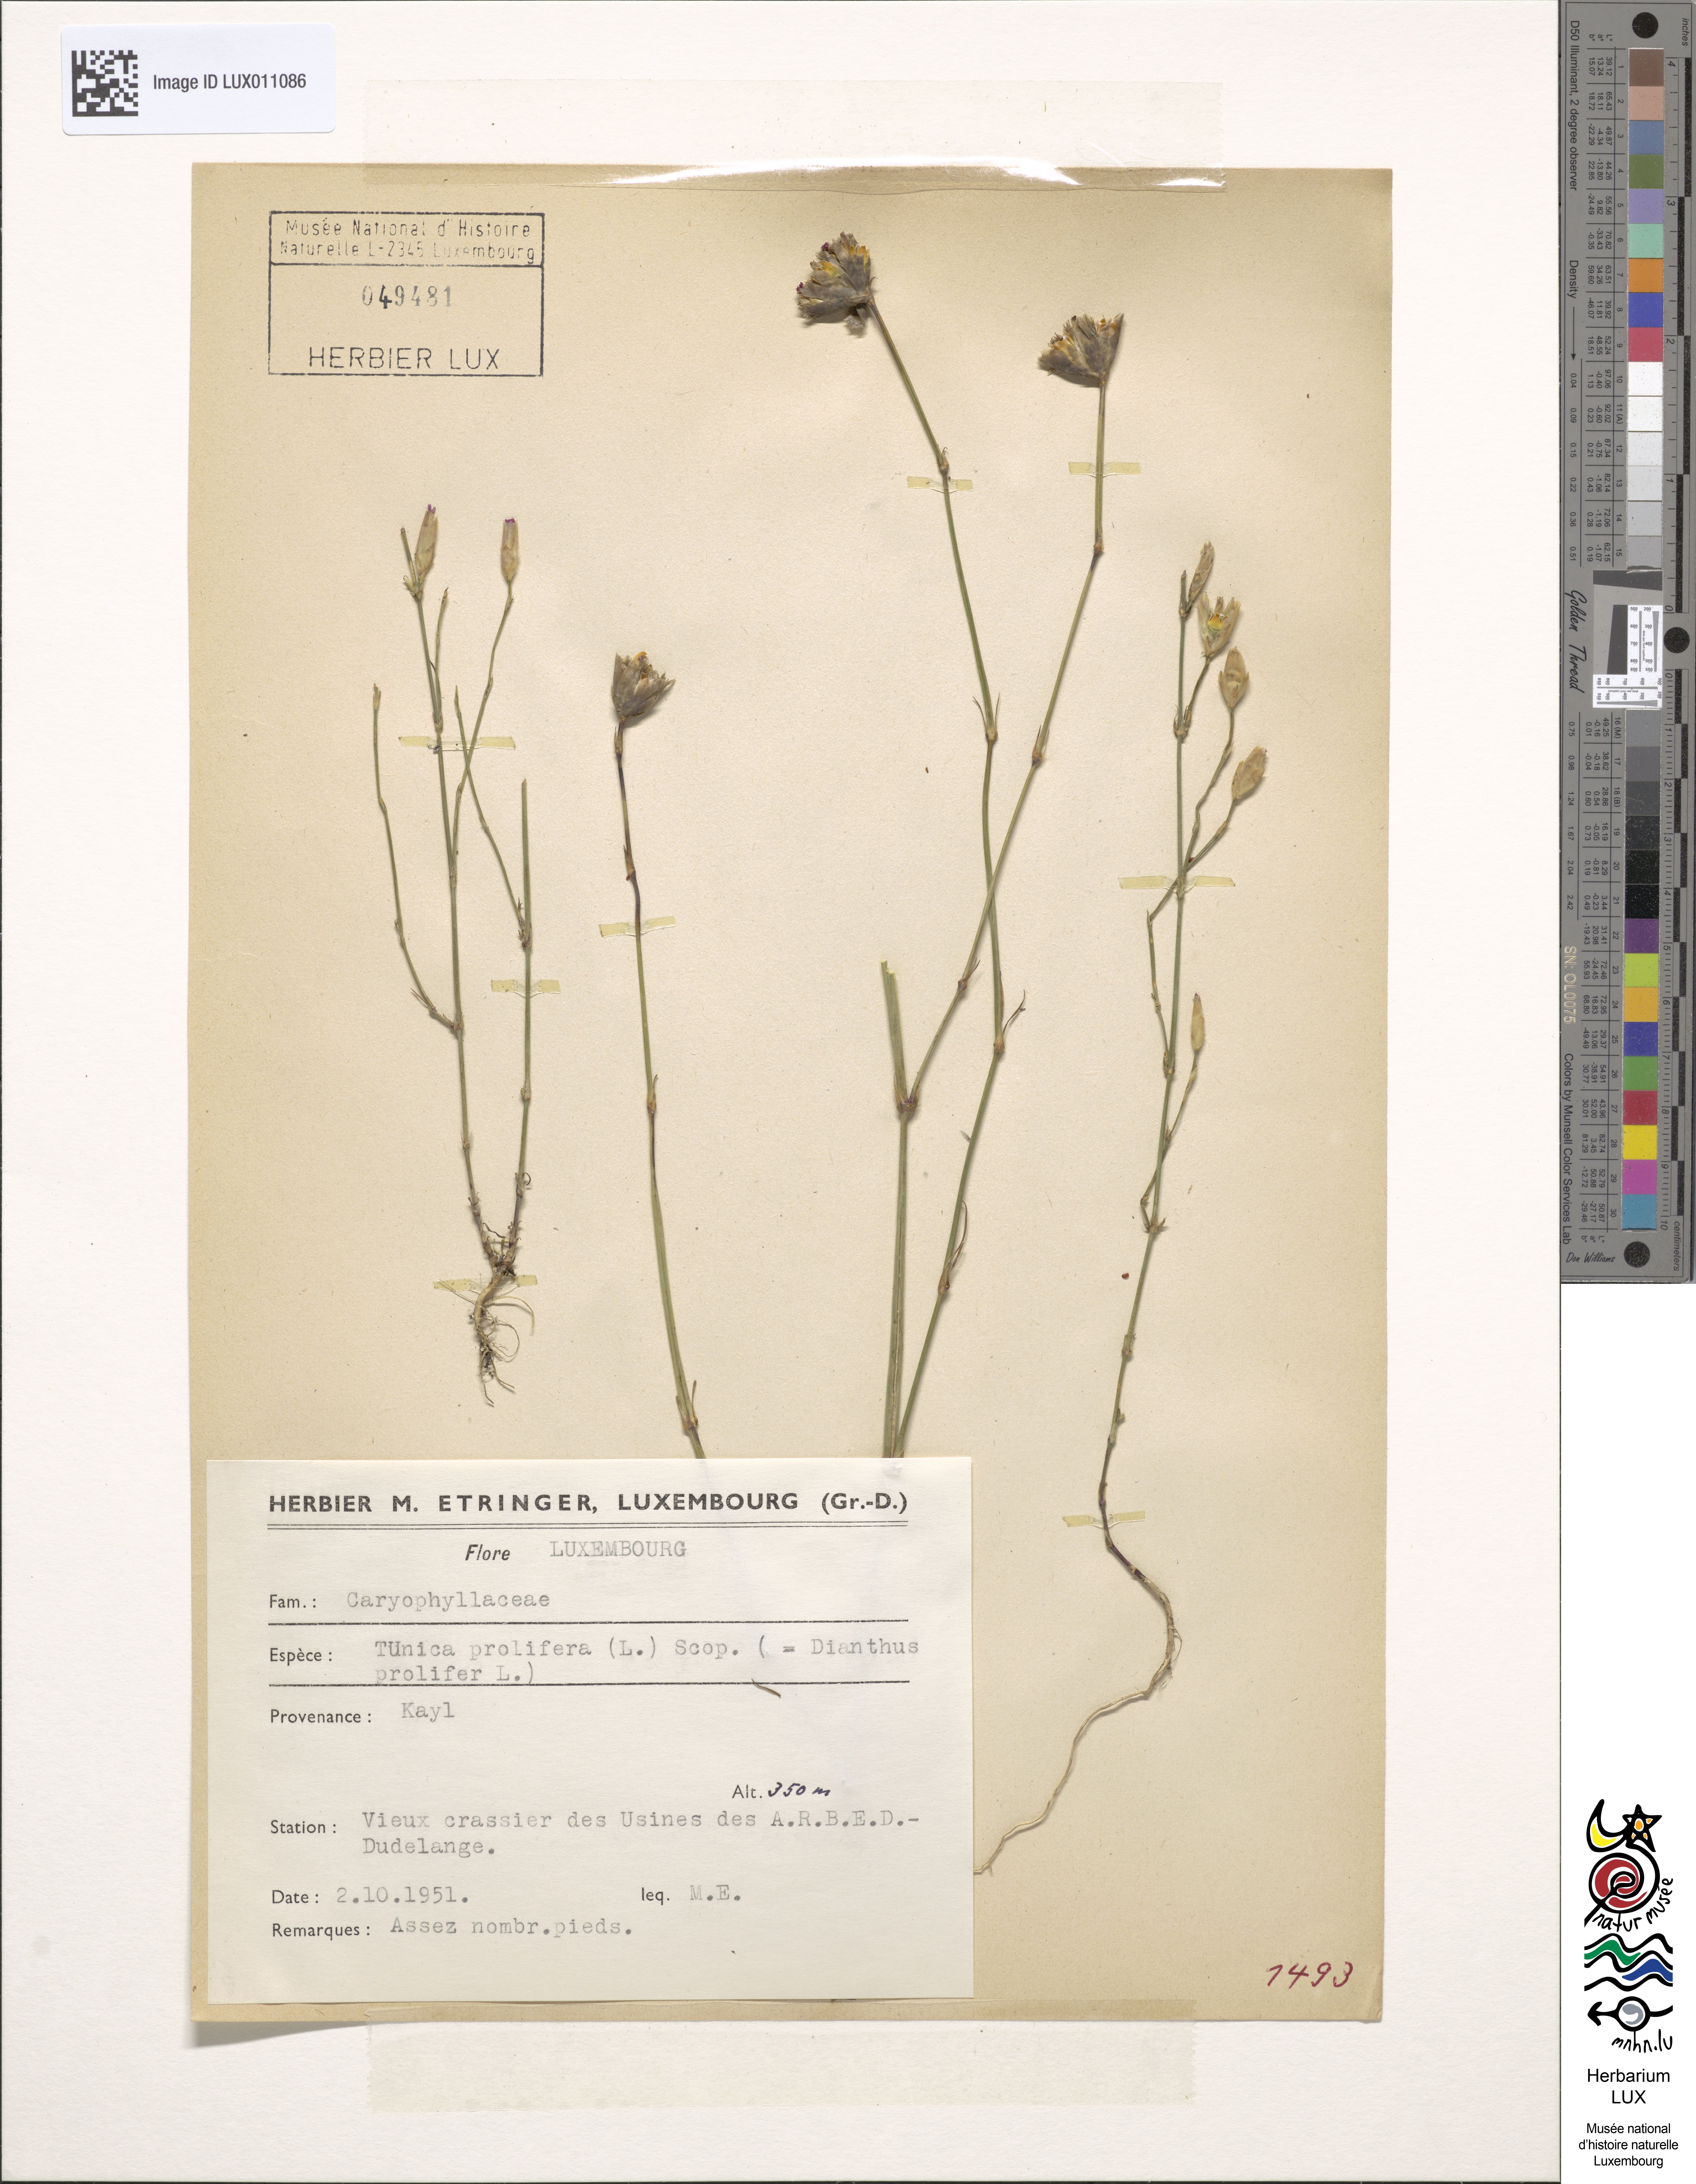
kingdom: Plantae
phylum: Tracheophyta
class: Magnoliopsida
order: Caryophyllales
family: Caryophyllaceae
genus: Petrorhagia
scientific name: Petrorhagia prolifera
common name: Proliferous pink
